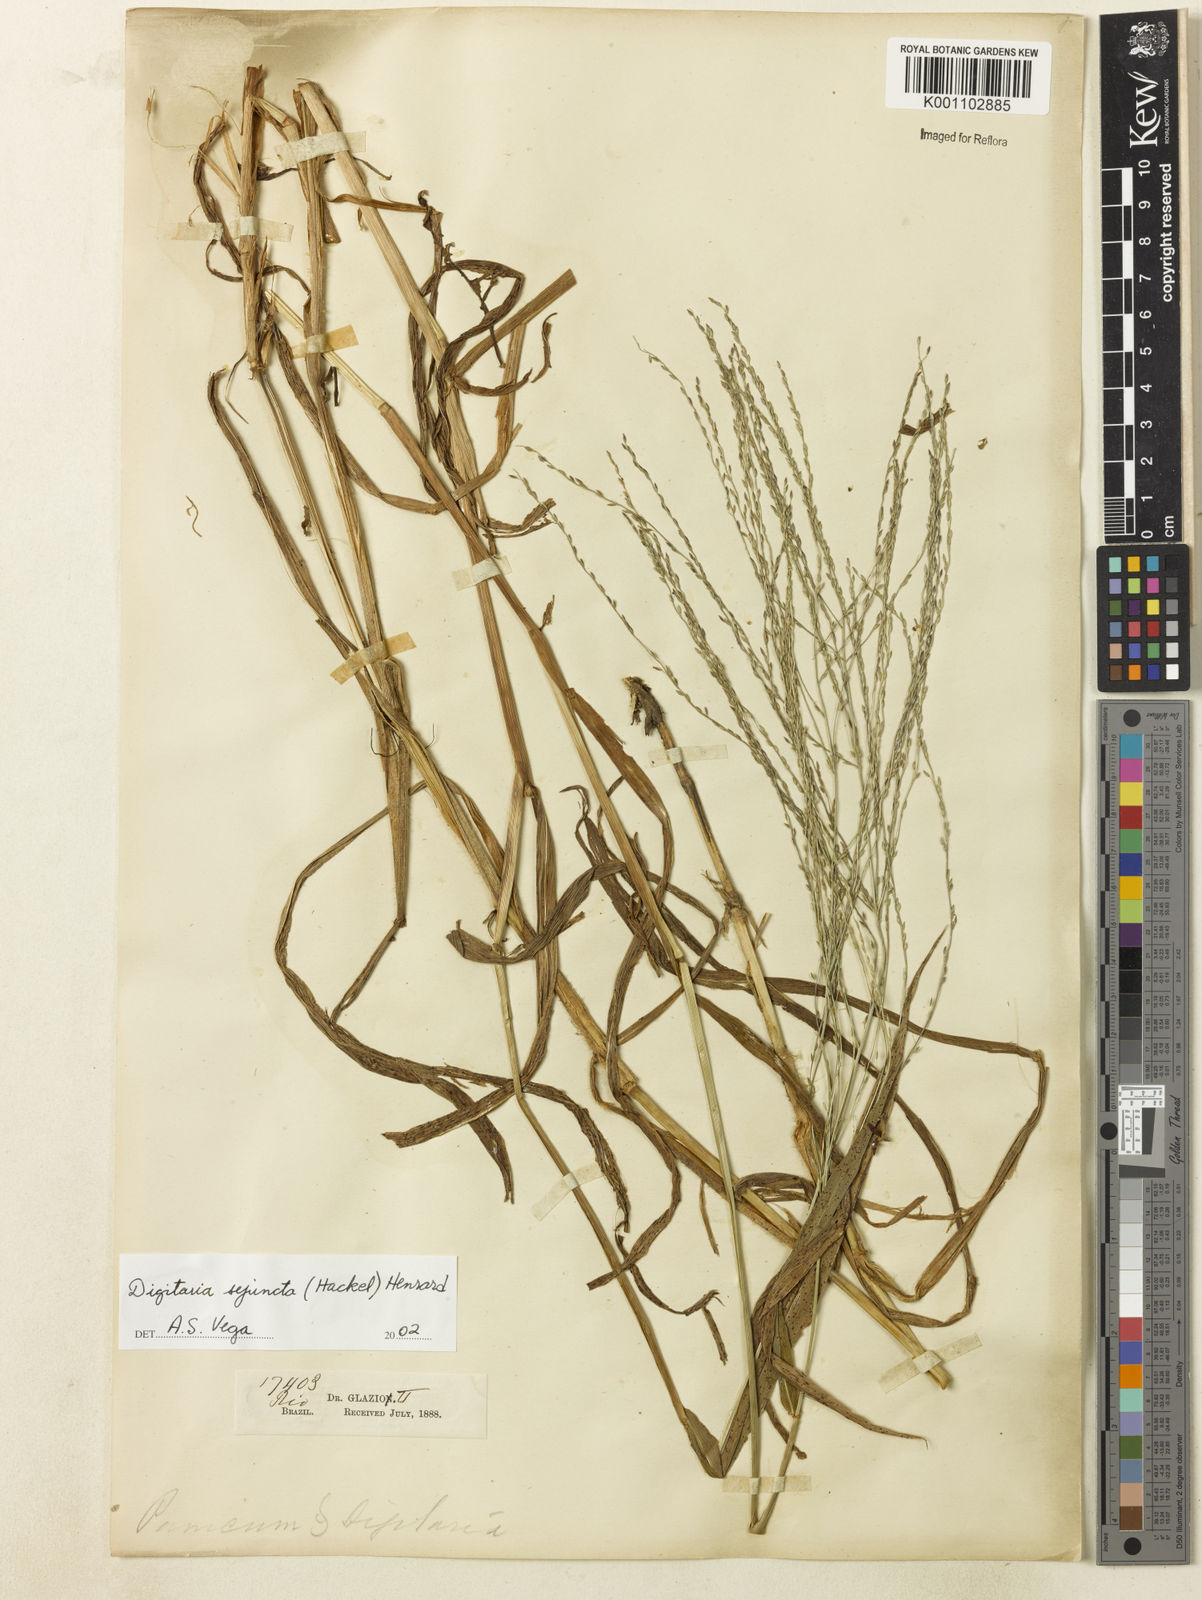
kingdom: Plantae
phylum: Tracheophyta
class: Liliopsida
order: Poales
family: Poaceae
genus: Digitaria
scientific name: Digitaria sejuncta
